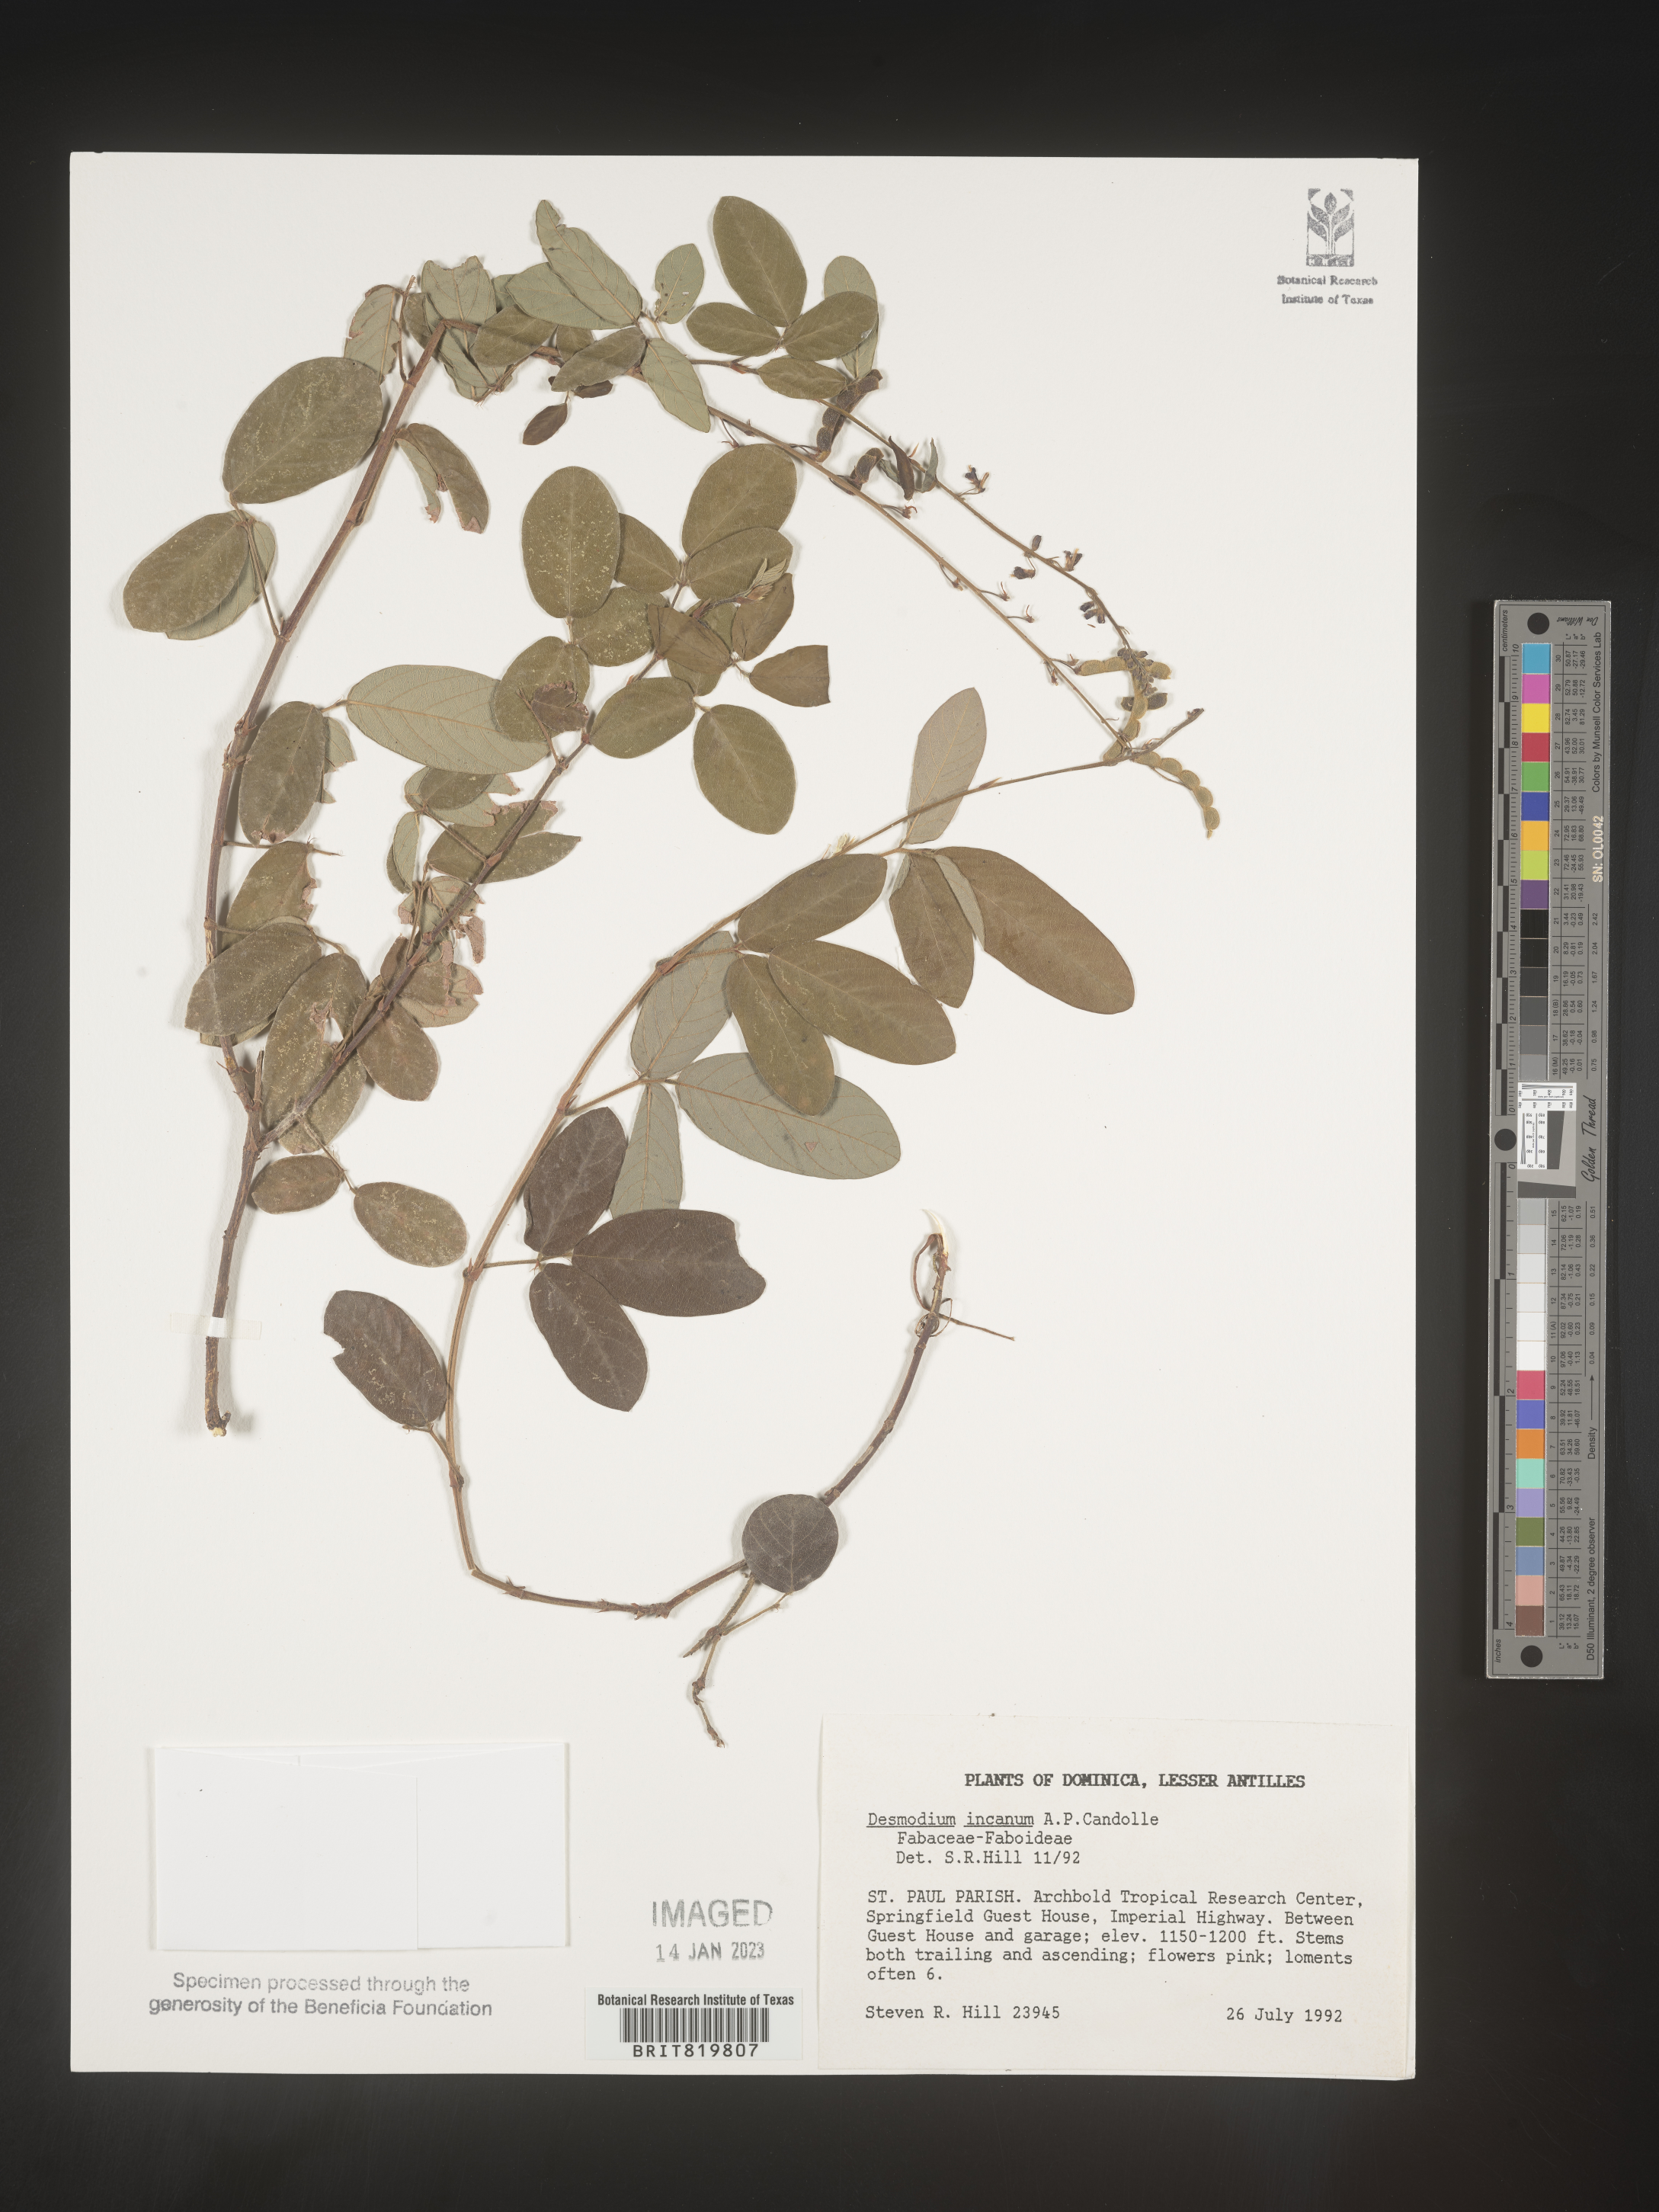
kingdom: Plantae
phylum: Tracheophyta
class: Magnoliopsida
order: Fabales
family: Fabaceae
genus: Desmodium
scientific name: Desmodium
